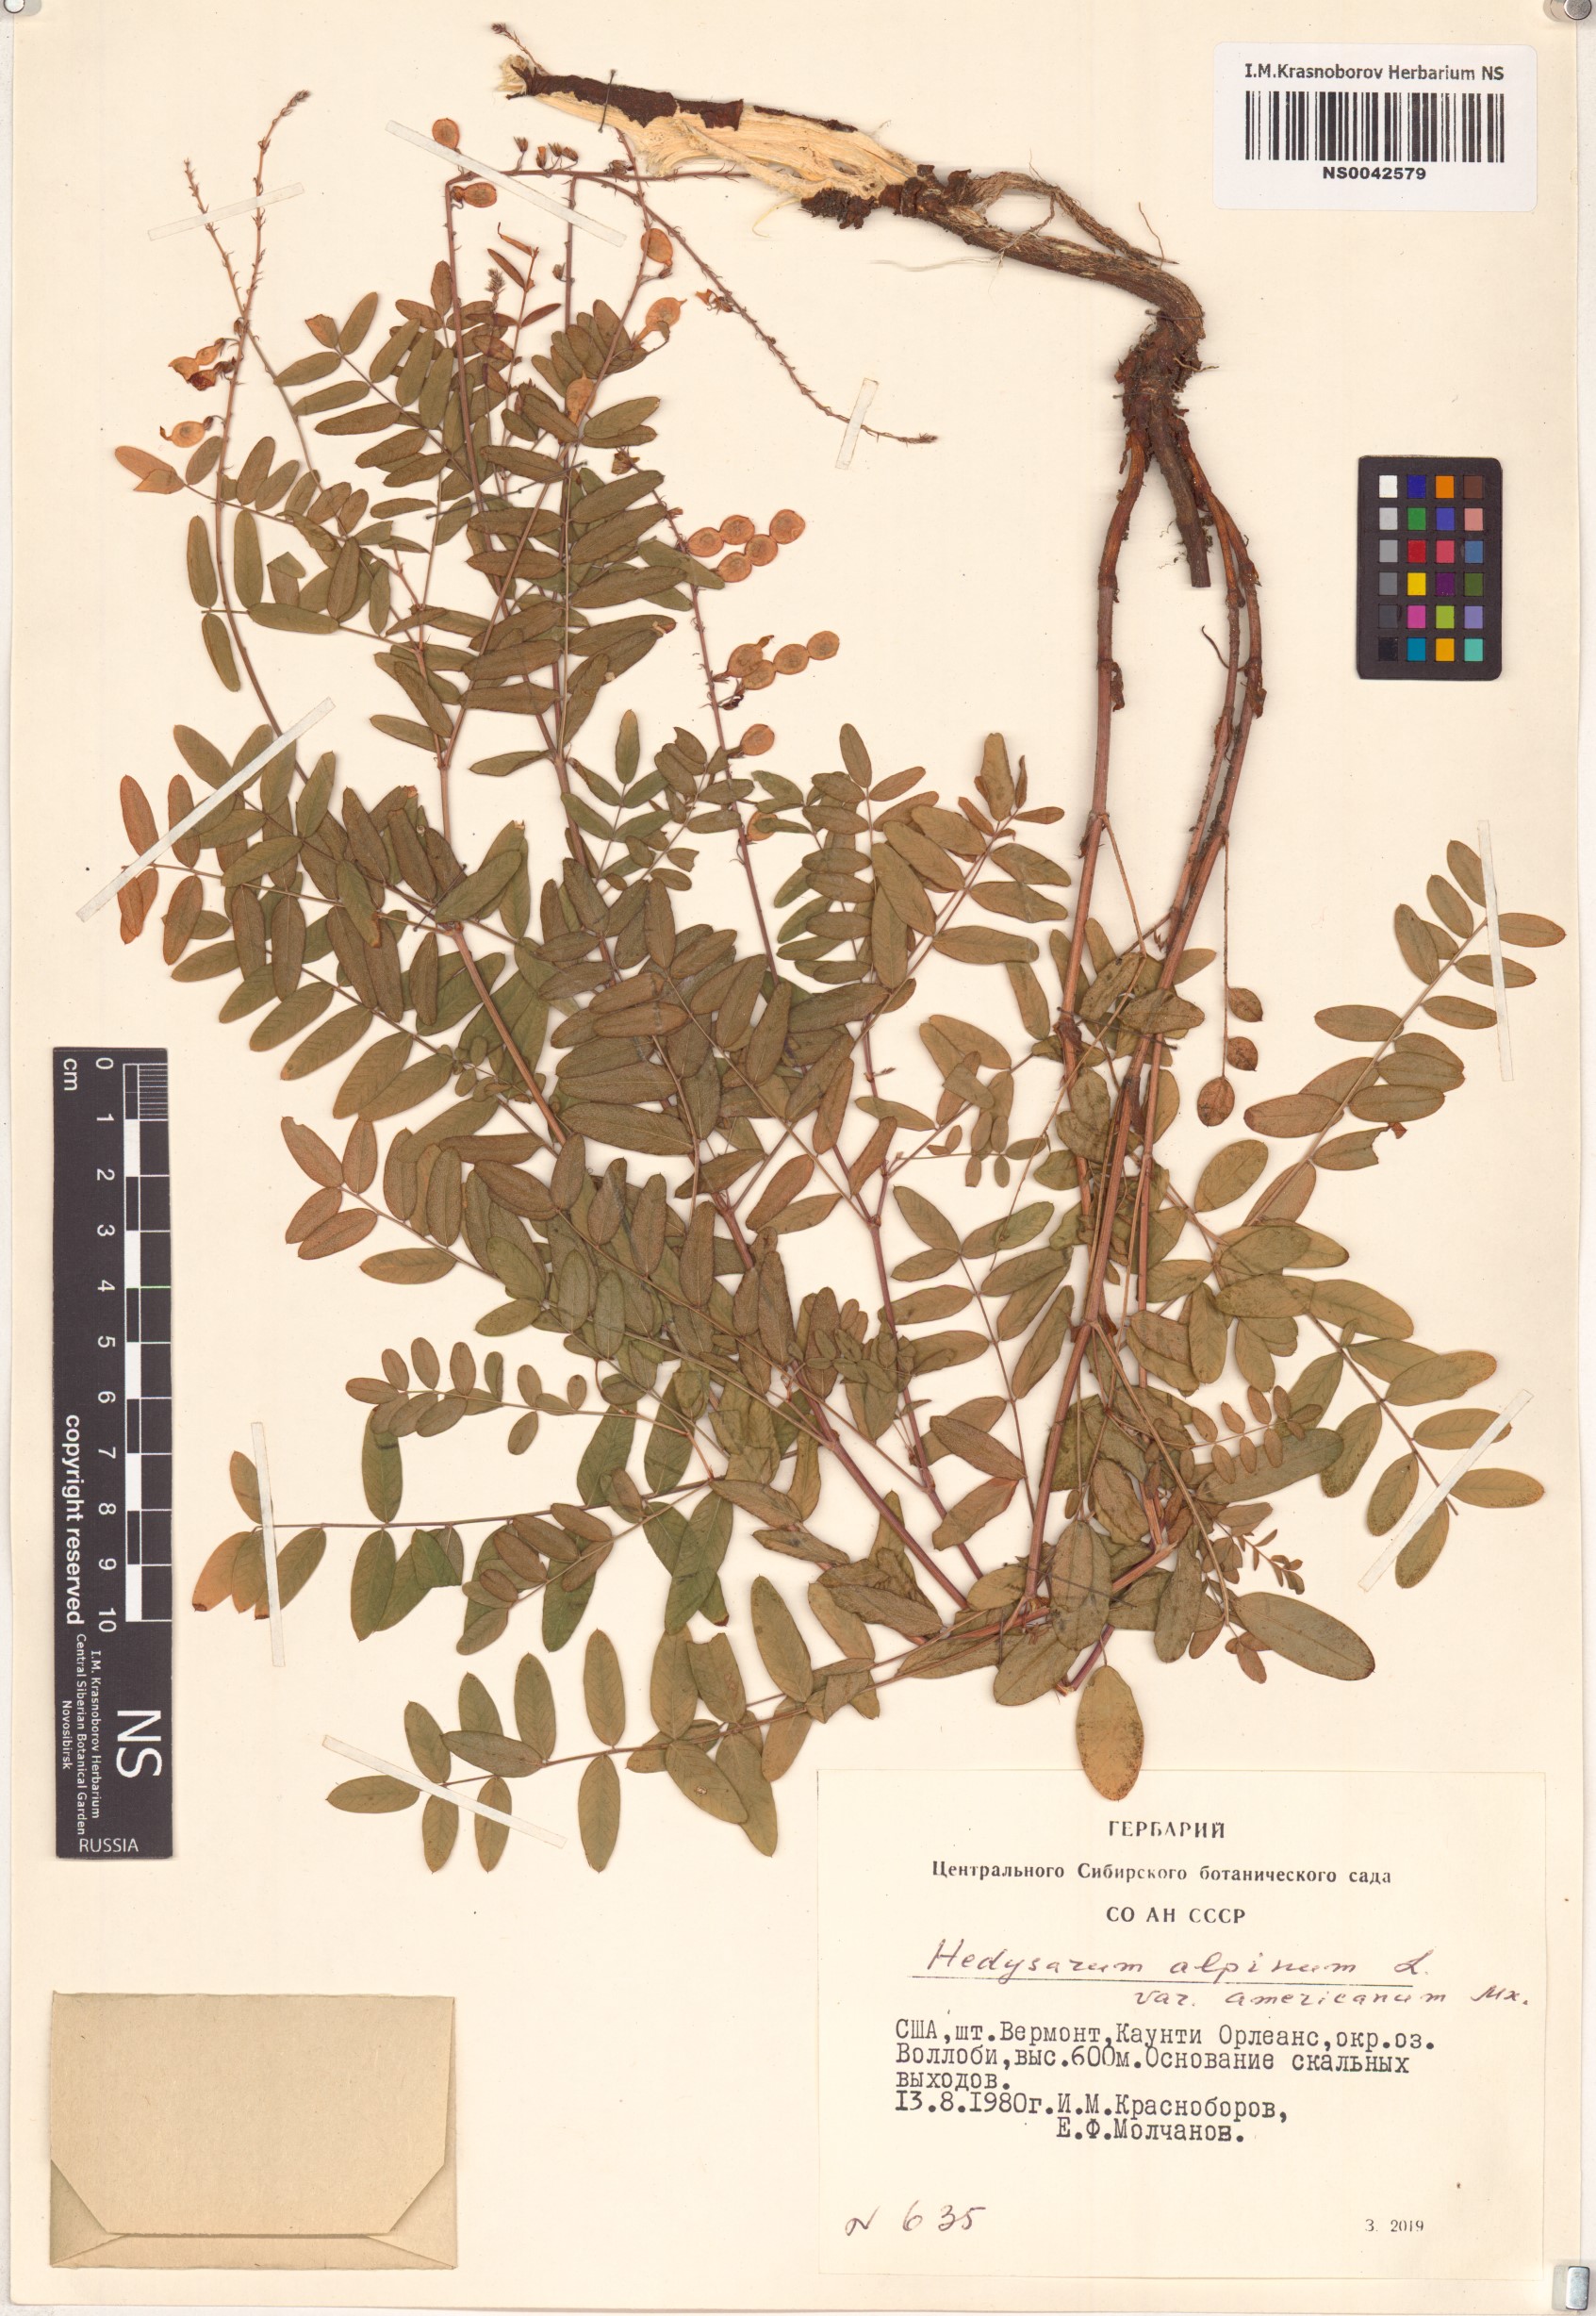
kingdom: Plantae
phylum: Tracheophyta
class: Magnoliopsida
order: Fabales
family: Fabaceae
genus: Hedysarum
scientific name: Hedysarum americanum
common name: Alpine hedysarum
